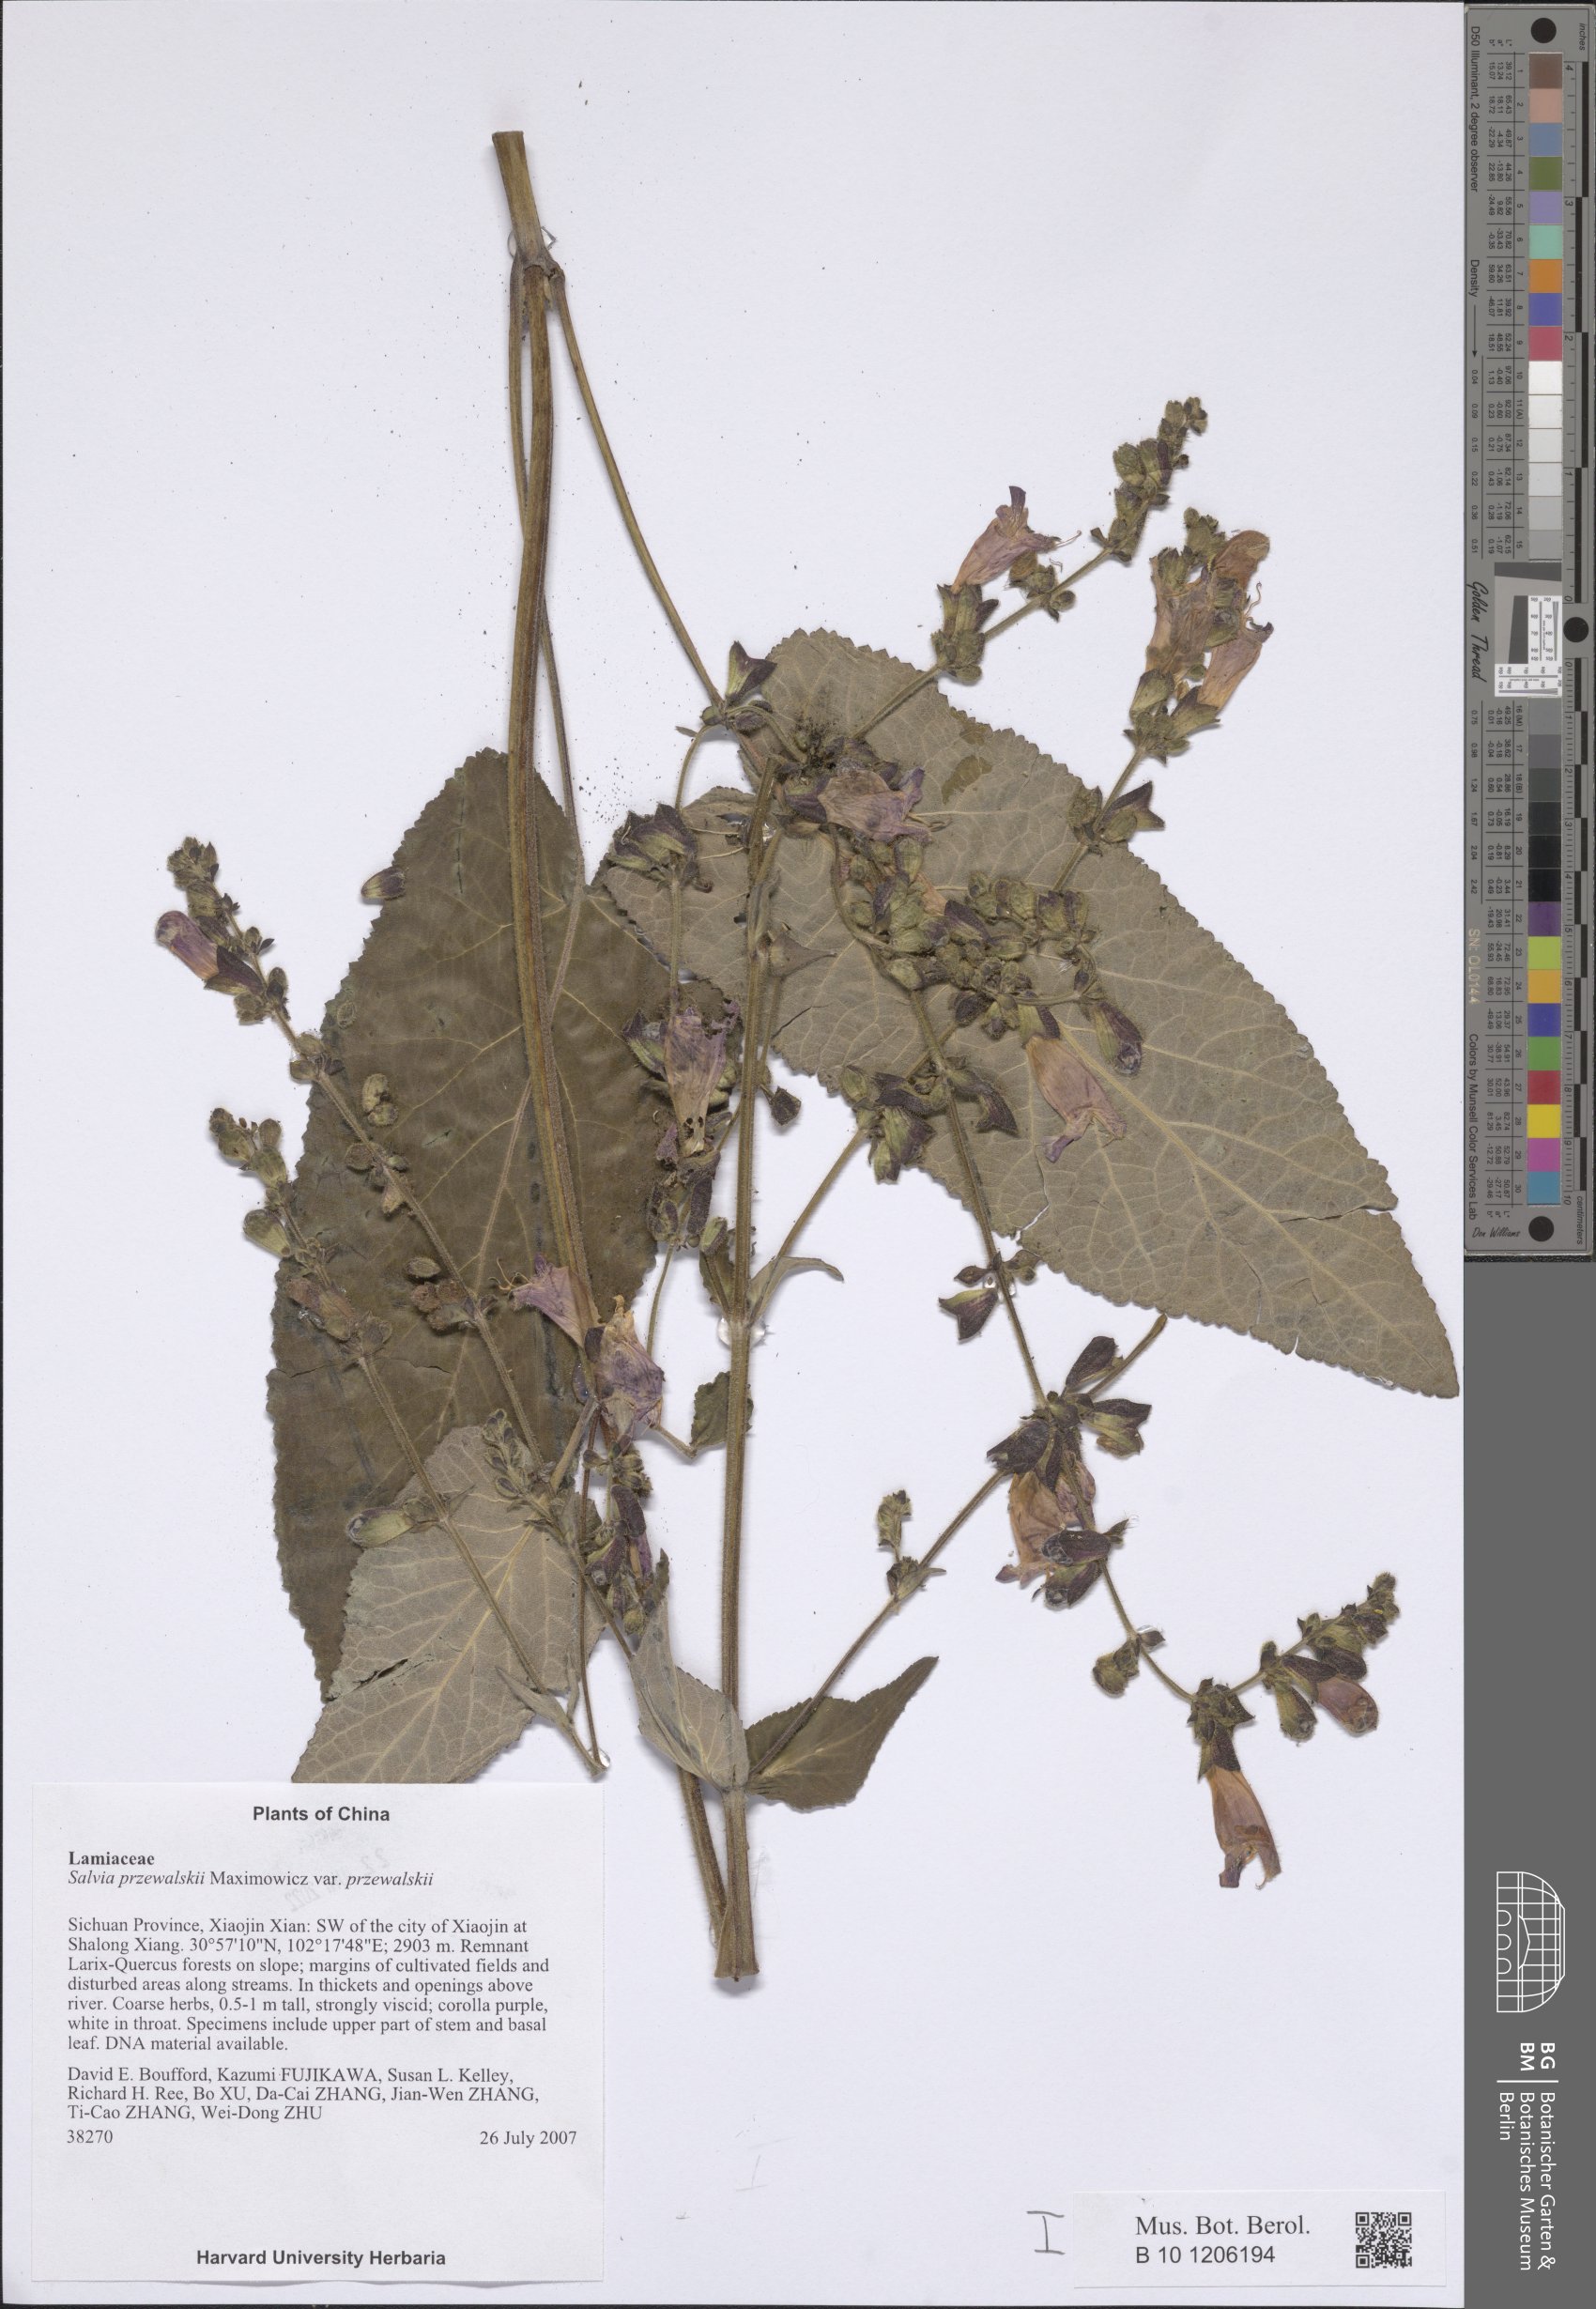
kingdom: Plantae
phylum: Tracheophyta
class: Magnoliopsida
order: Lamiales
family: Lamiaceae
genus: Salvia
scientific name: Salvia przewalskii
